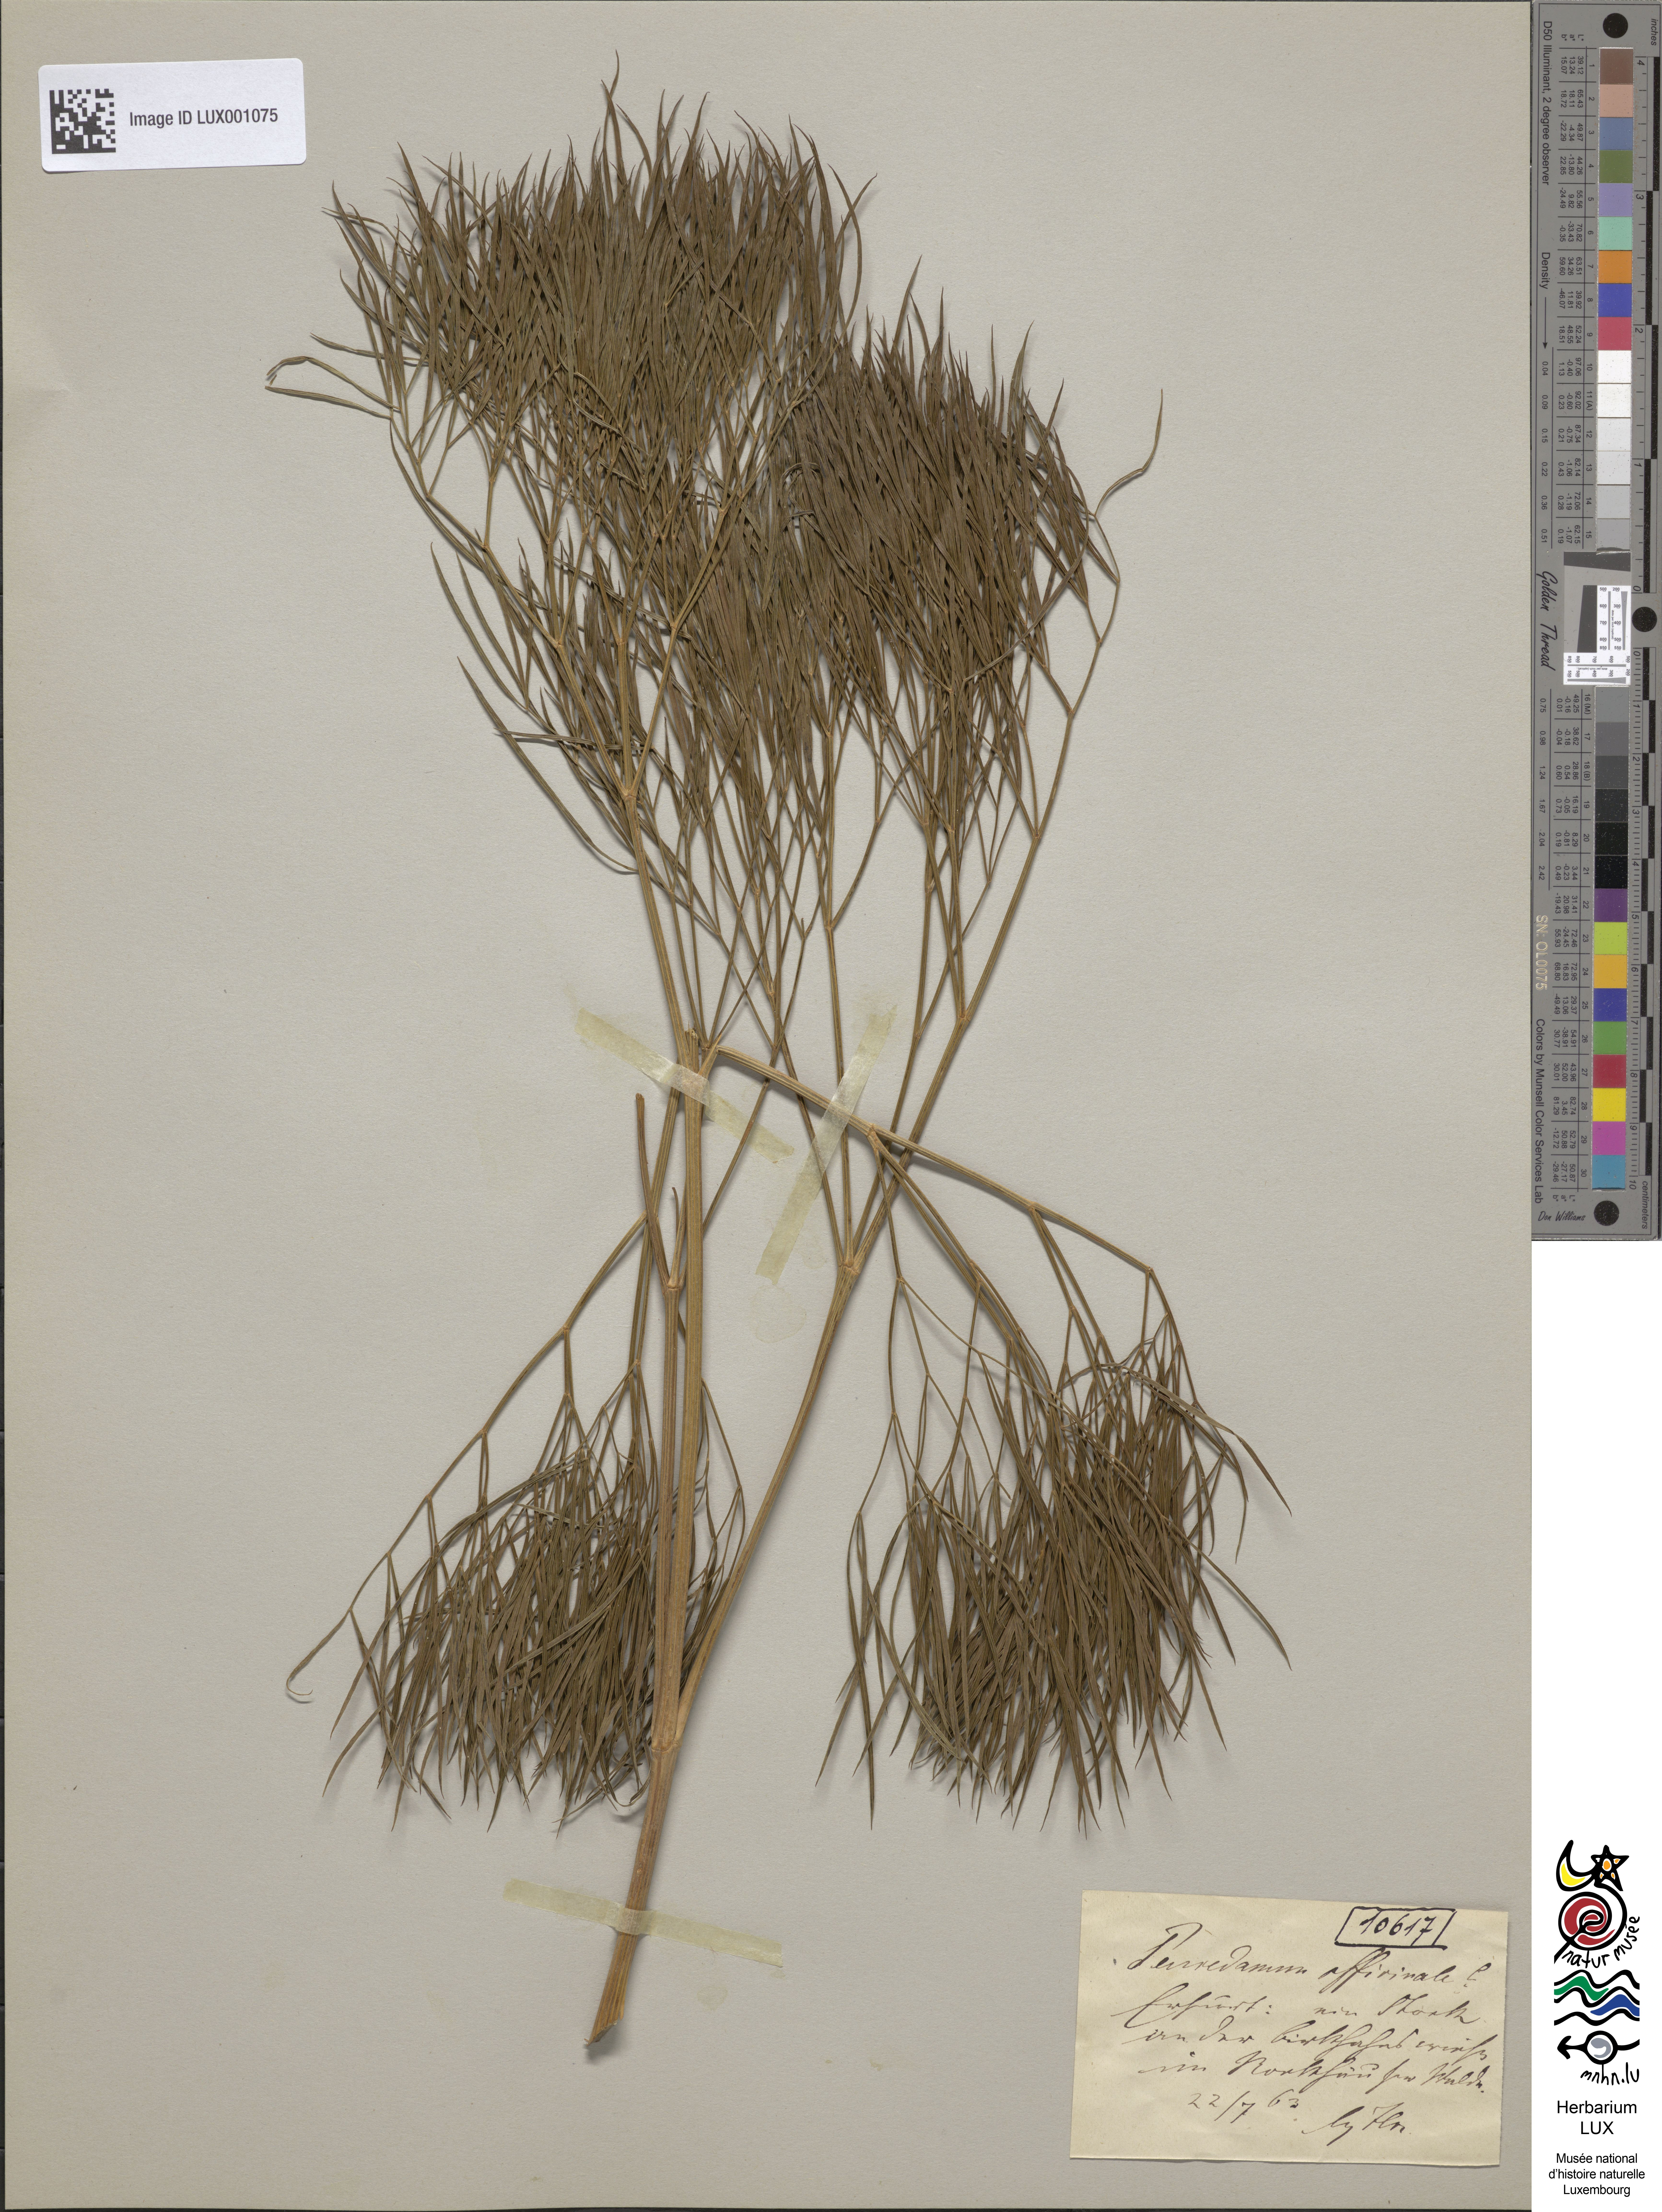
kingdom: Plantae
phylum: Tracheophyta
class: Magnoliopsida
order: Apiales
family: Apiaceae
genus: Peucedanum
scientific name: Peucedanum officinale
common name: Sulphurweed
